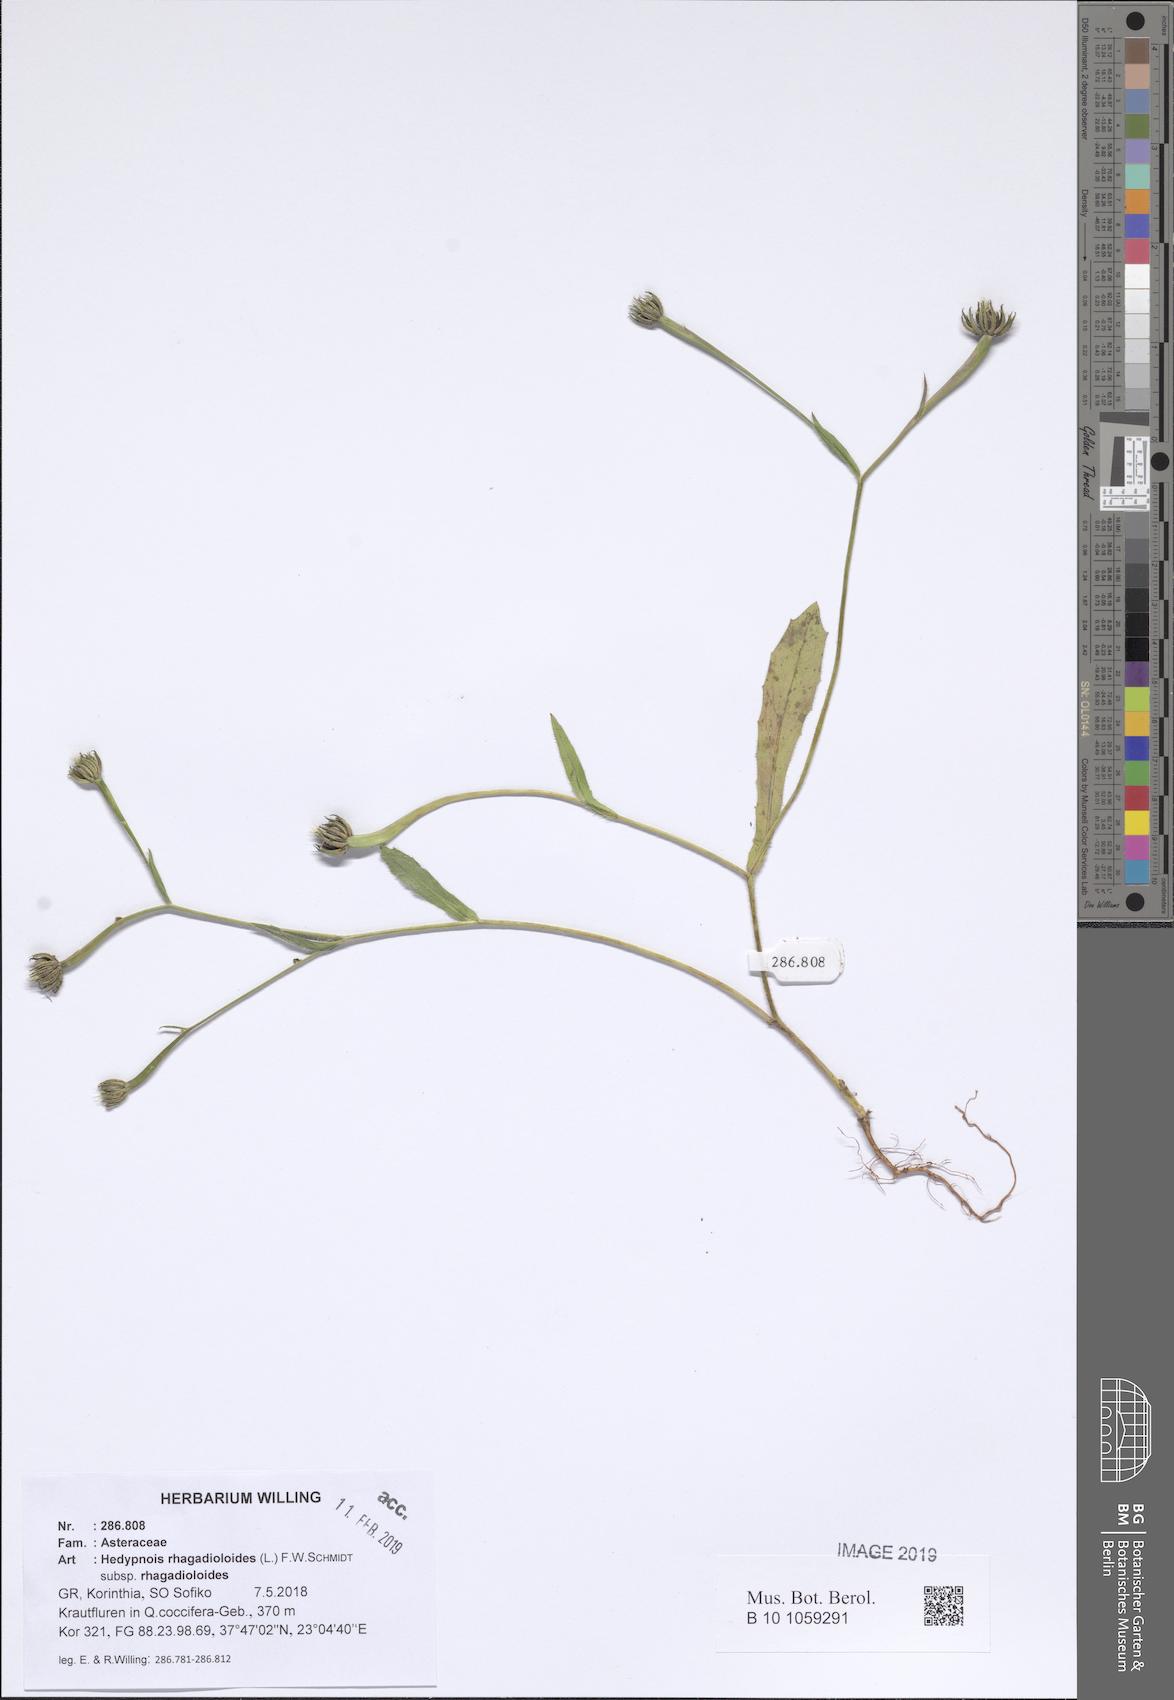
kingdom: Plantae
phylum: Tracheophyta
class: Magnoliopsida
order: Asterales
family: Asteraceae
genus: Hedypnois
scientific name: Hedypnois rhagadioloides
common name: Cretan weed
